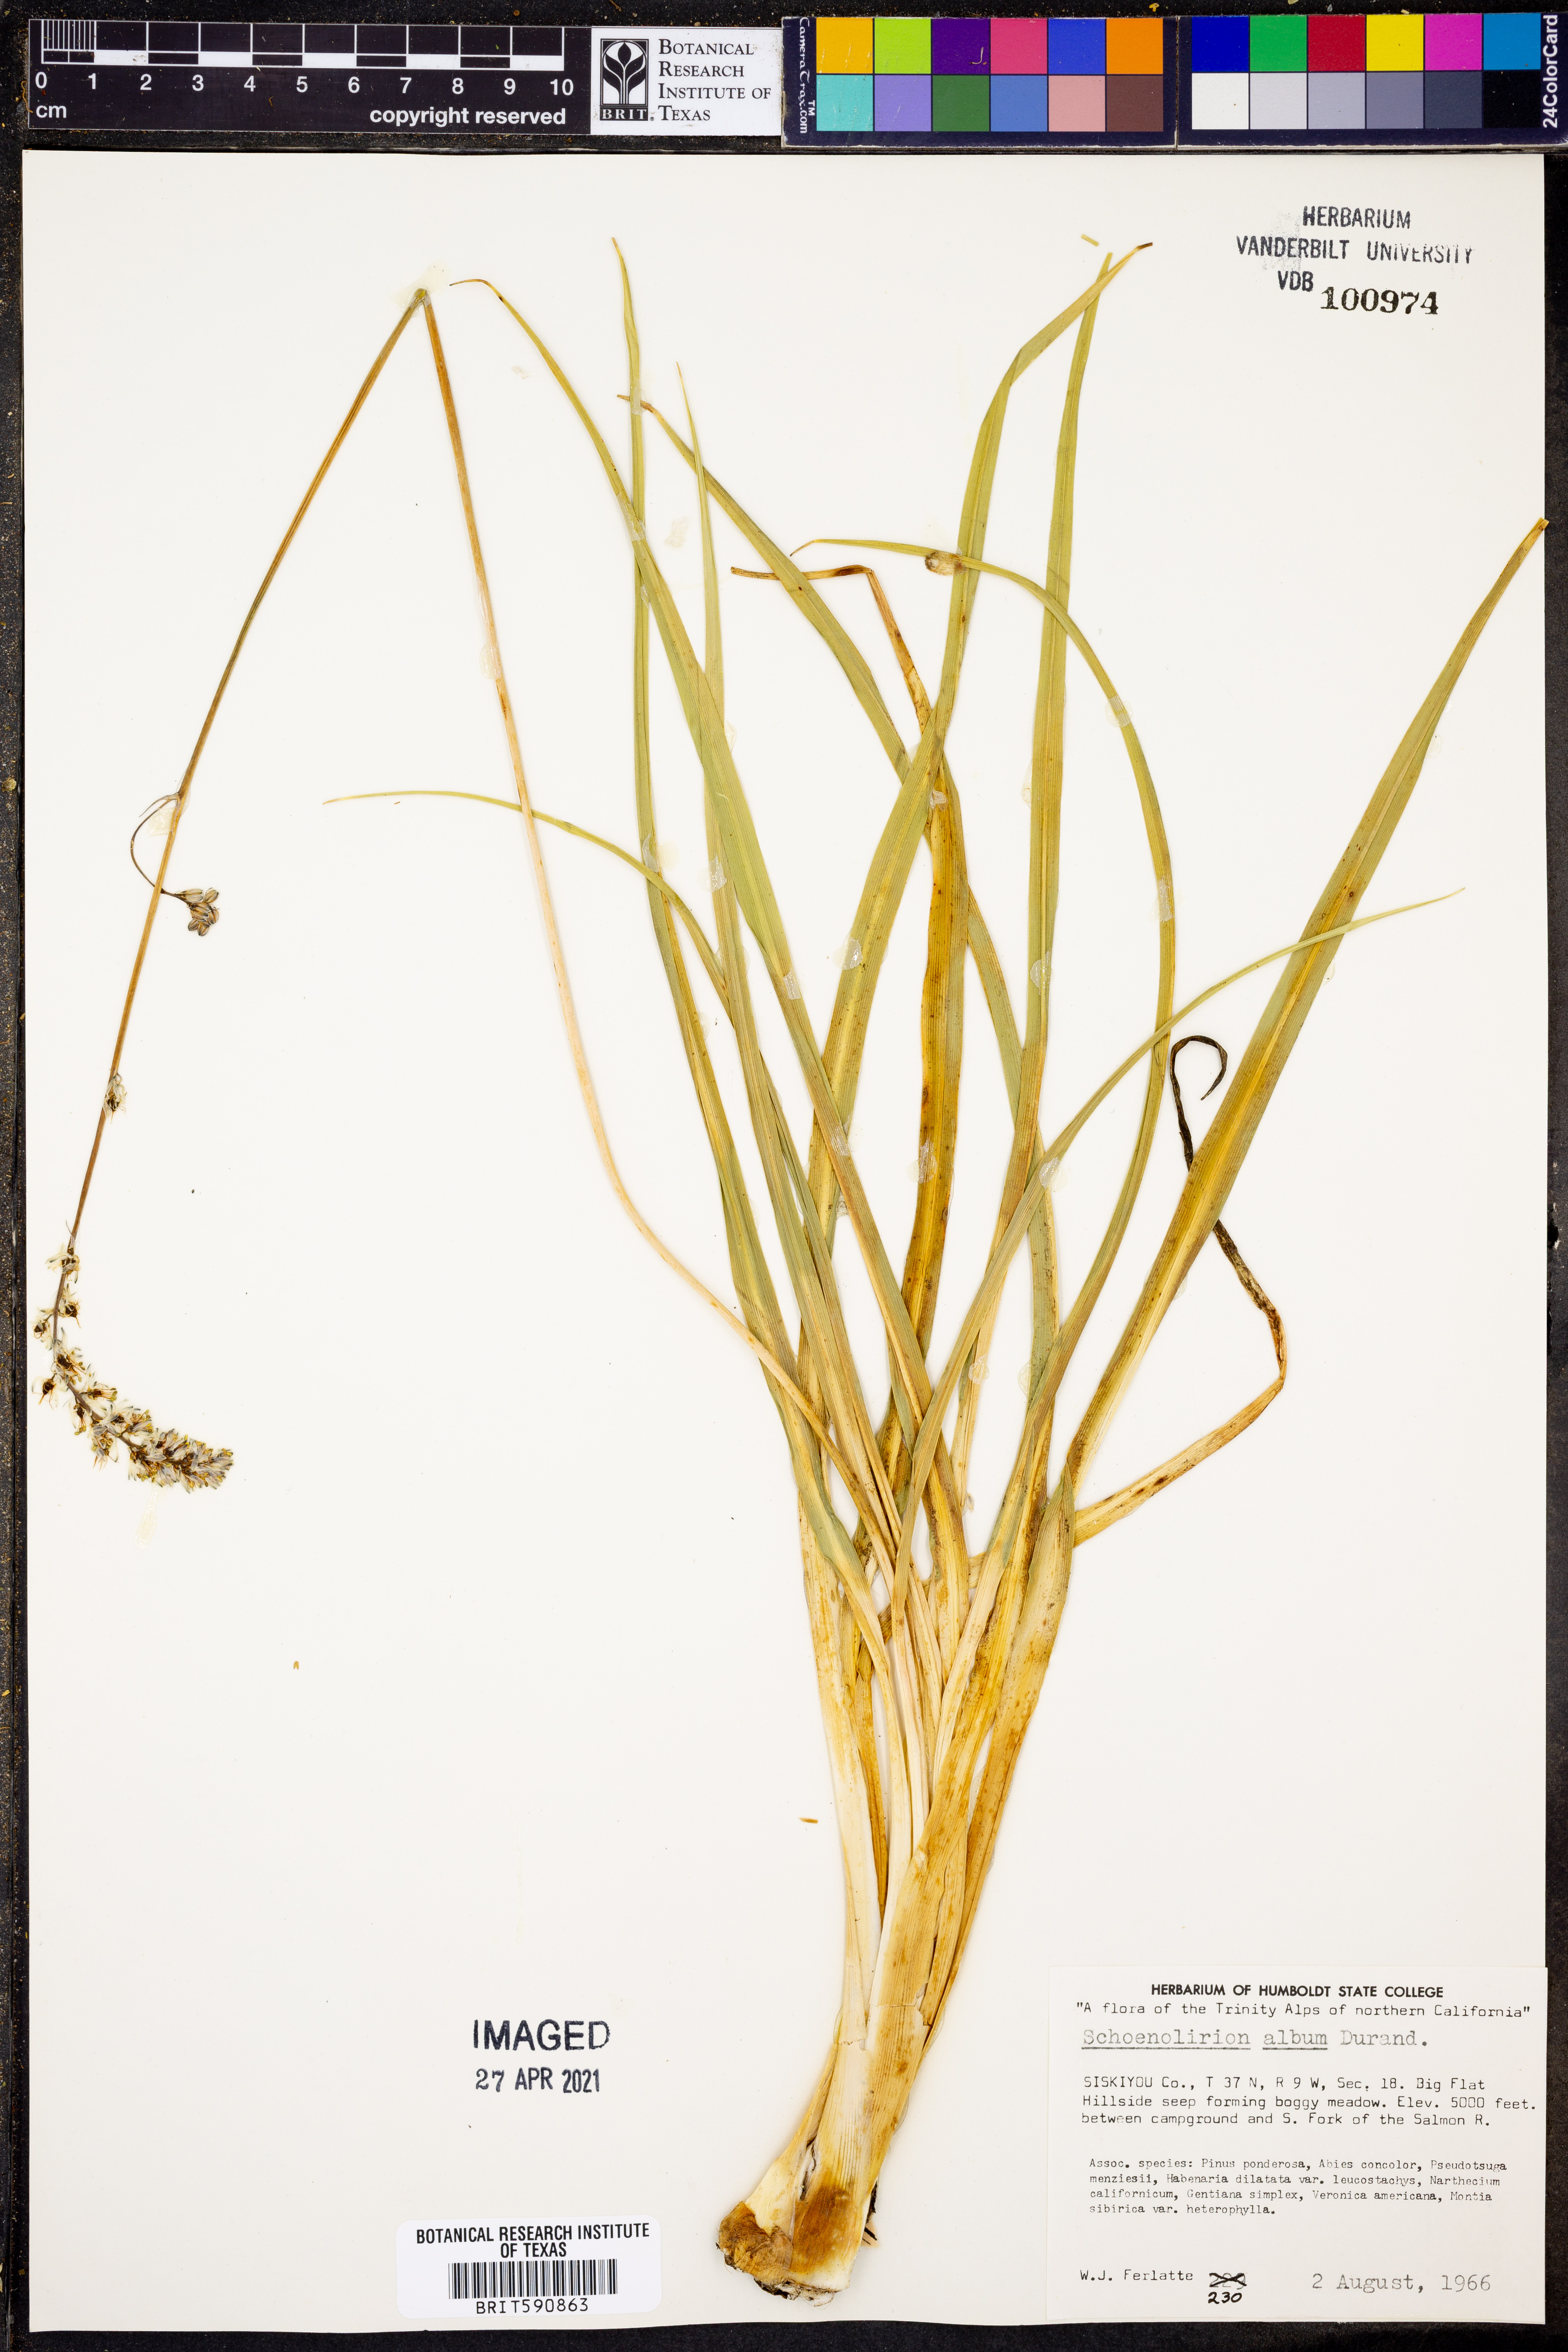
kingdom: Plantae
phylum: Tracheophyta
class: Liliopsida
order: Asparagales
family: Asparagaceae
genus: Hastingsia
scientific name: Hastingsia alba
